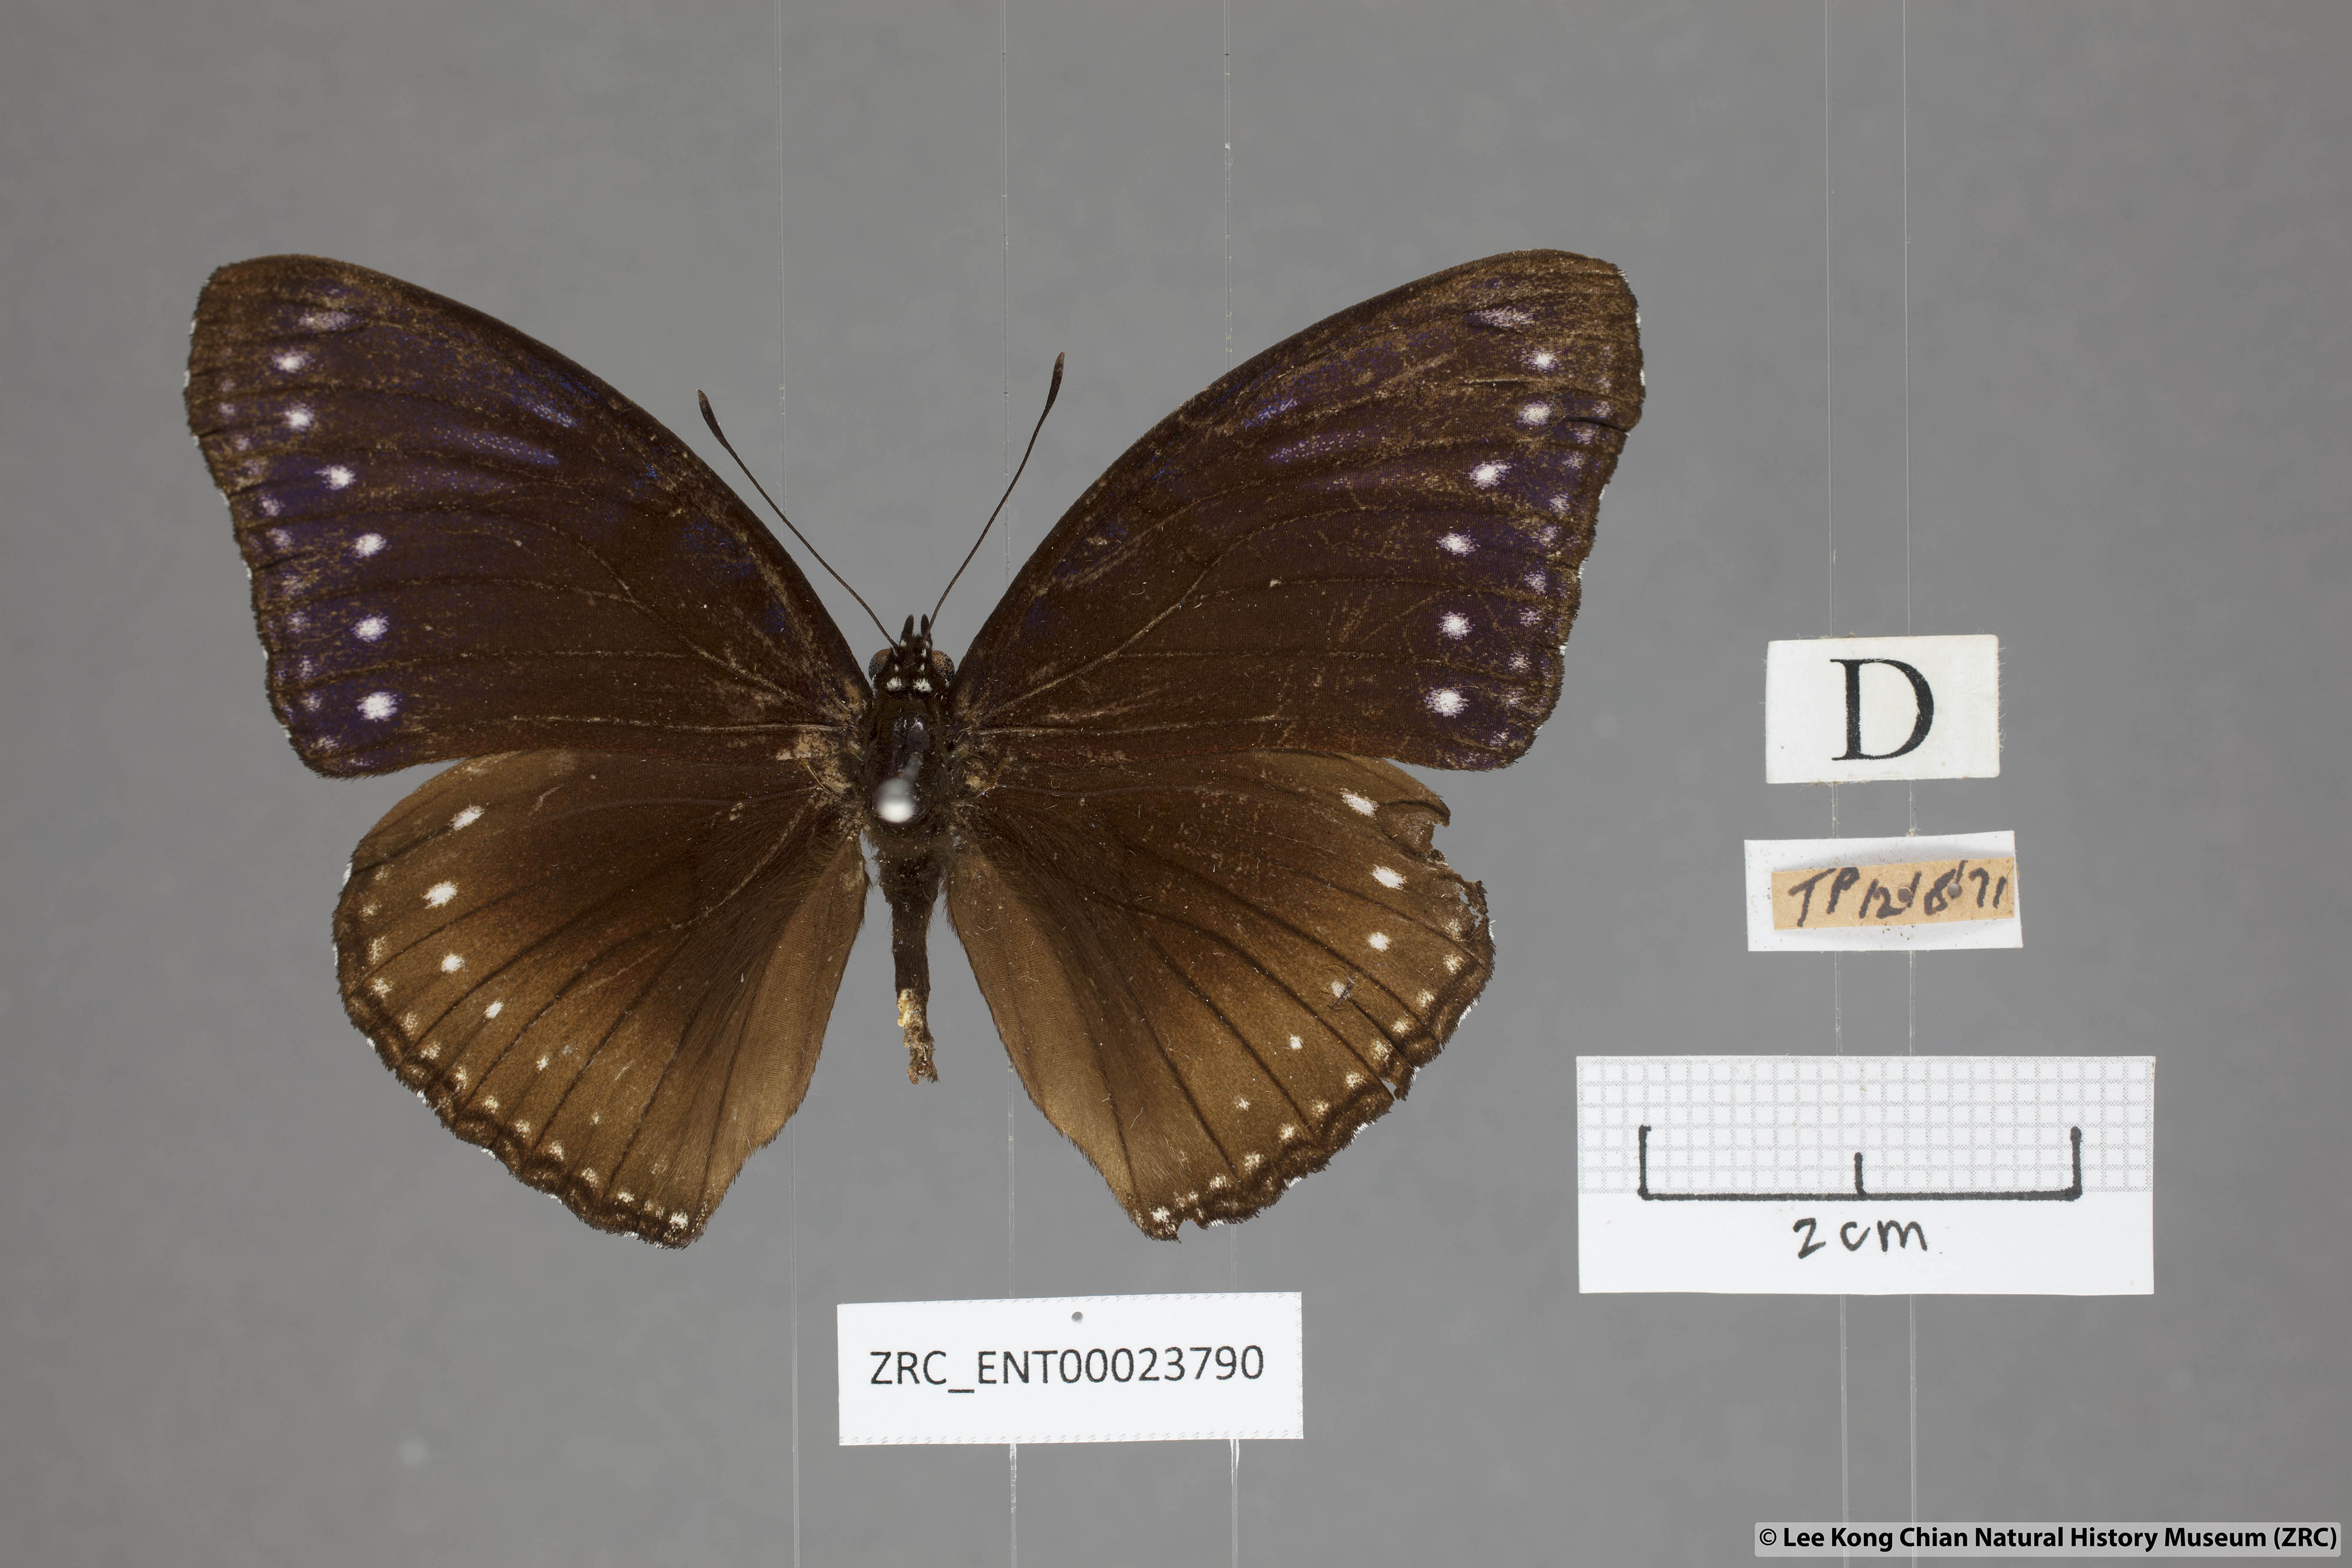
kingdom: Animalia
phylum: Arthropoda
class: Insecta
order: Lepidoptera
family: Nymphalidae
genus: Hypolimnas
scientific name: Hypolimnas anomala
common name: Malayan eggfly
